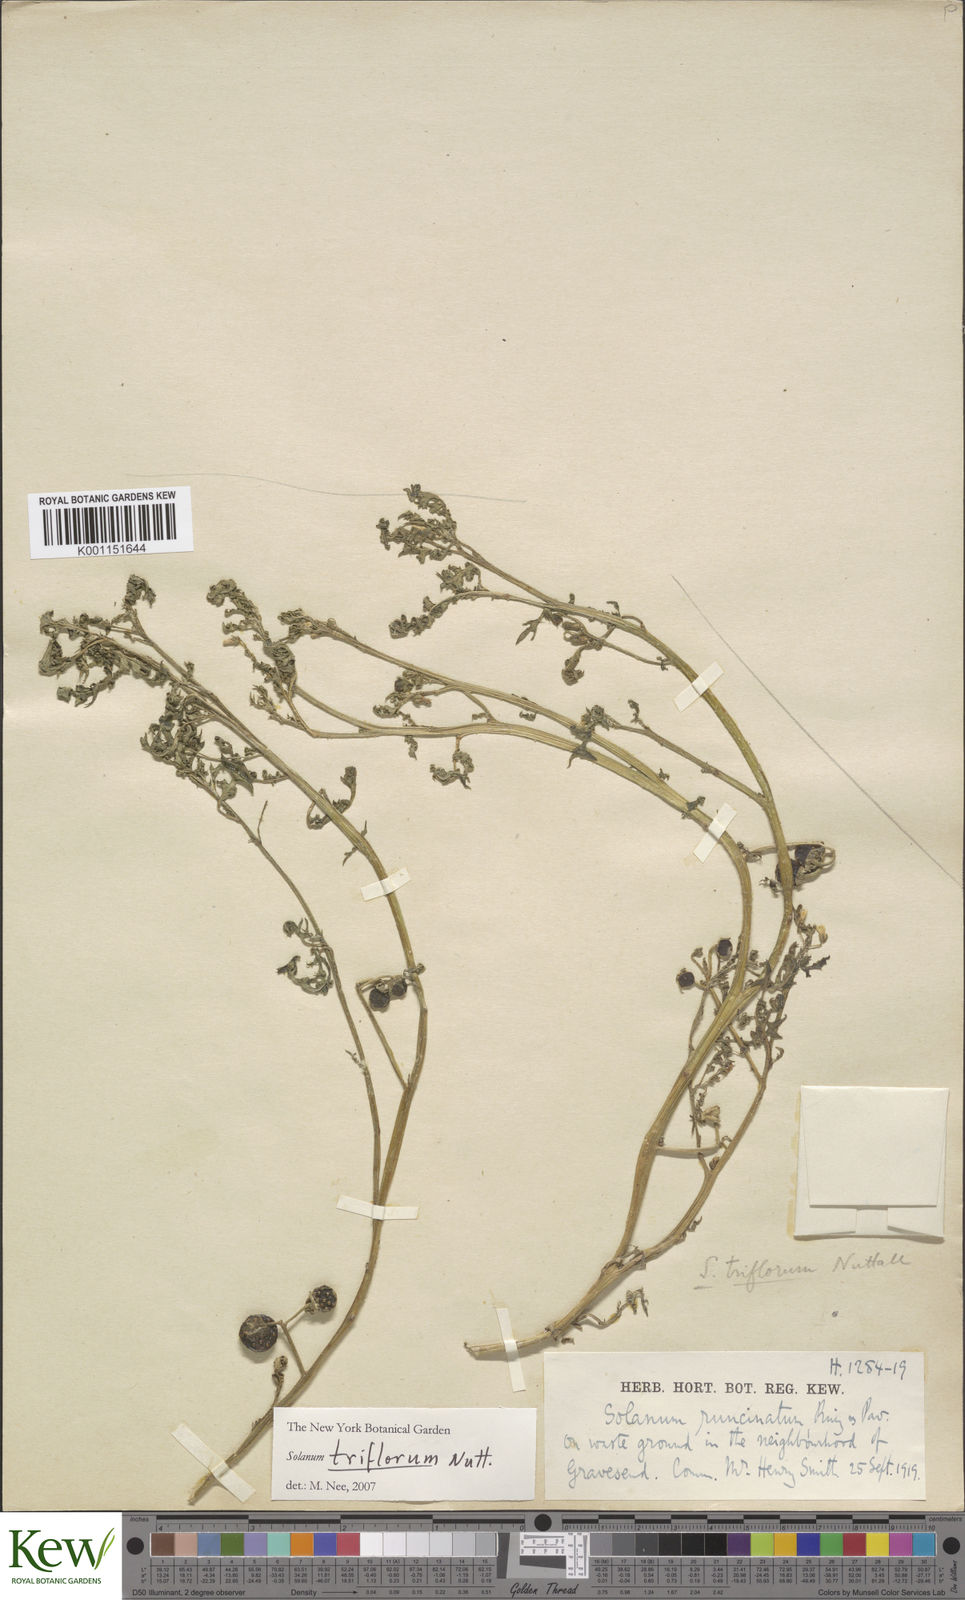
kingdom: Plantae
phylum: Tracheophyta
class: Magnoliopsida
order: Solanales
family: Solanaceae
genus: Solanum
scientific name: Solanum triflorum
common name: Small nightshade
